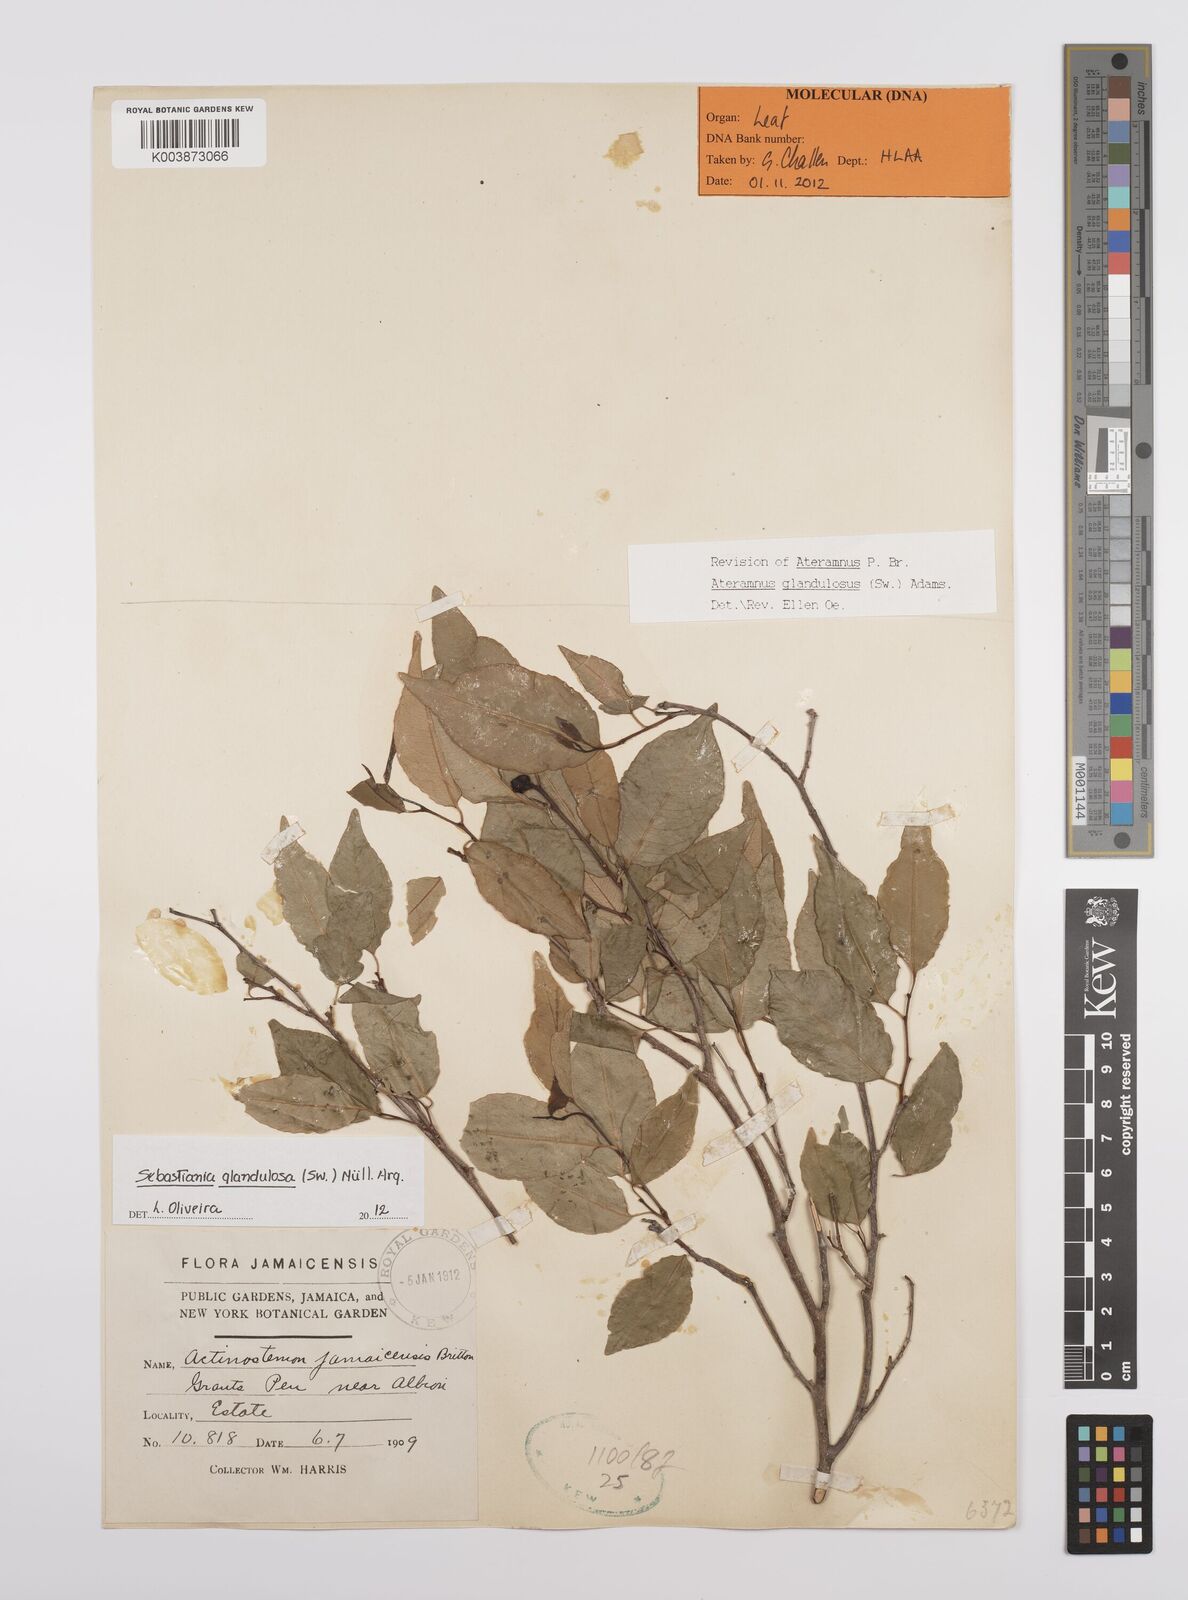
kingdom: Plantae
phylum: Tracheophyta
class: Magnoliopsida
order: Malpighiales
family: Euphorbiaceae
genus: Sebastiania
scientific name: Sebastiania glandulosa
